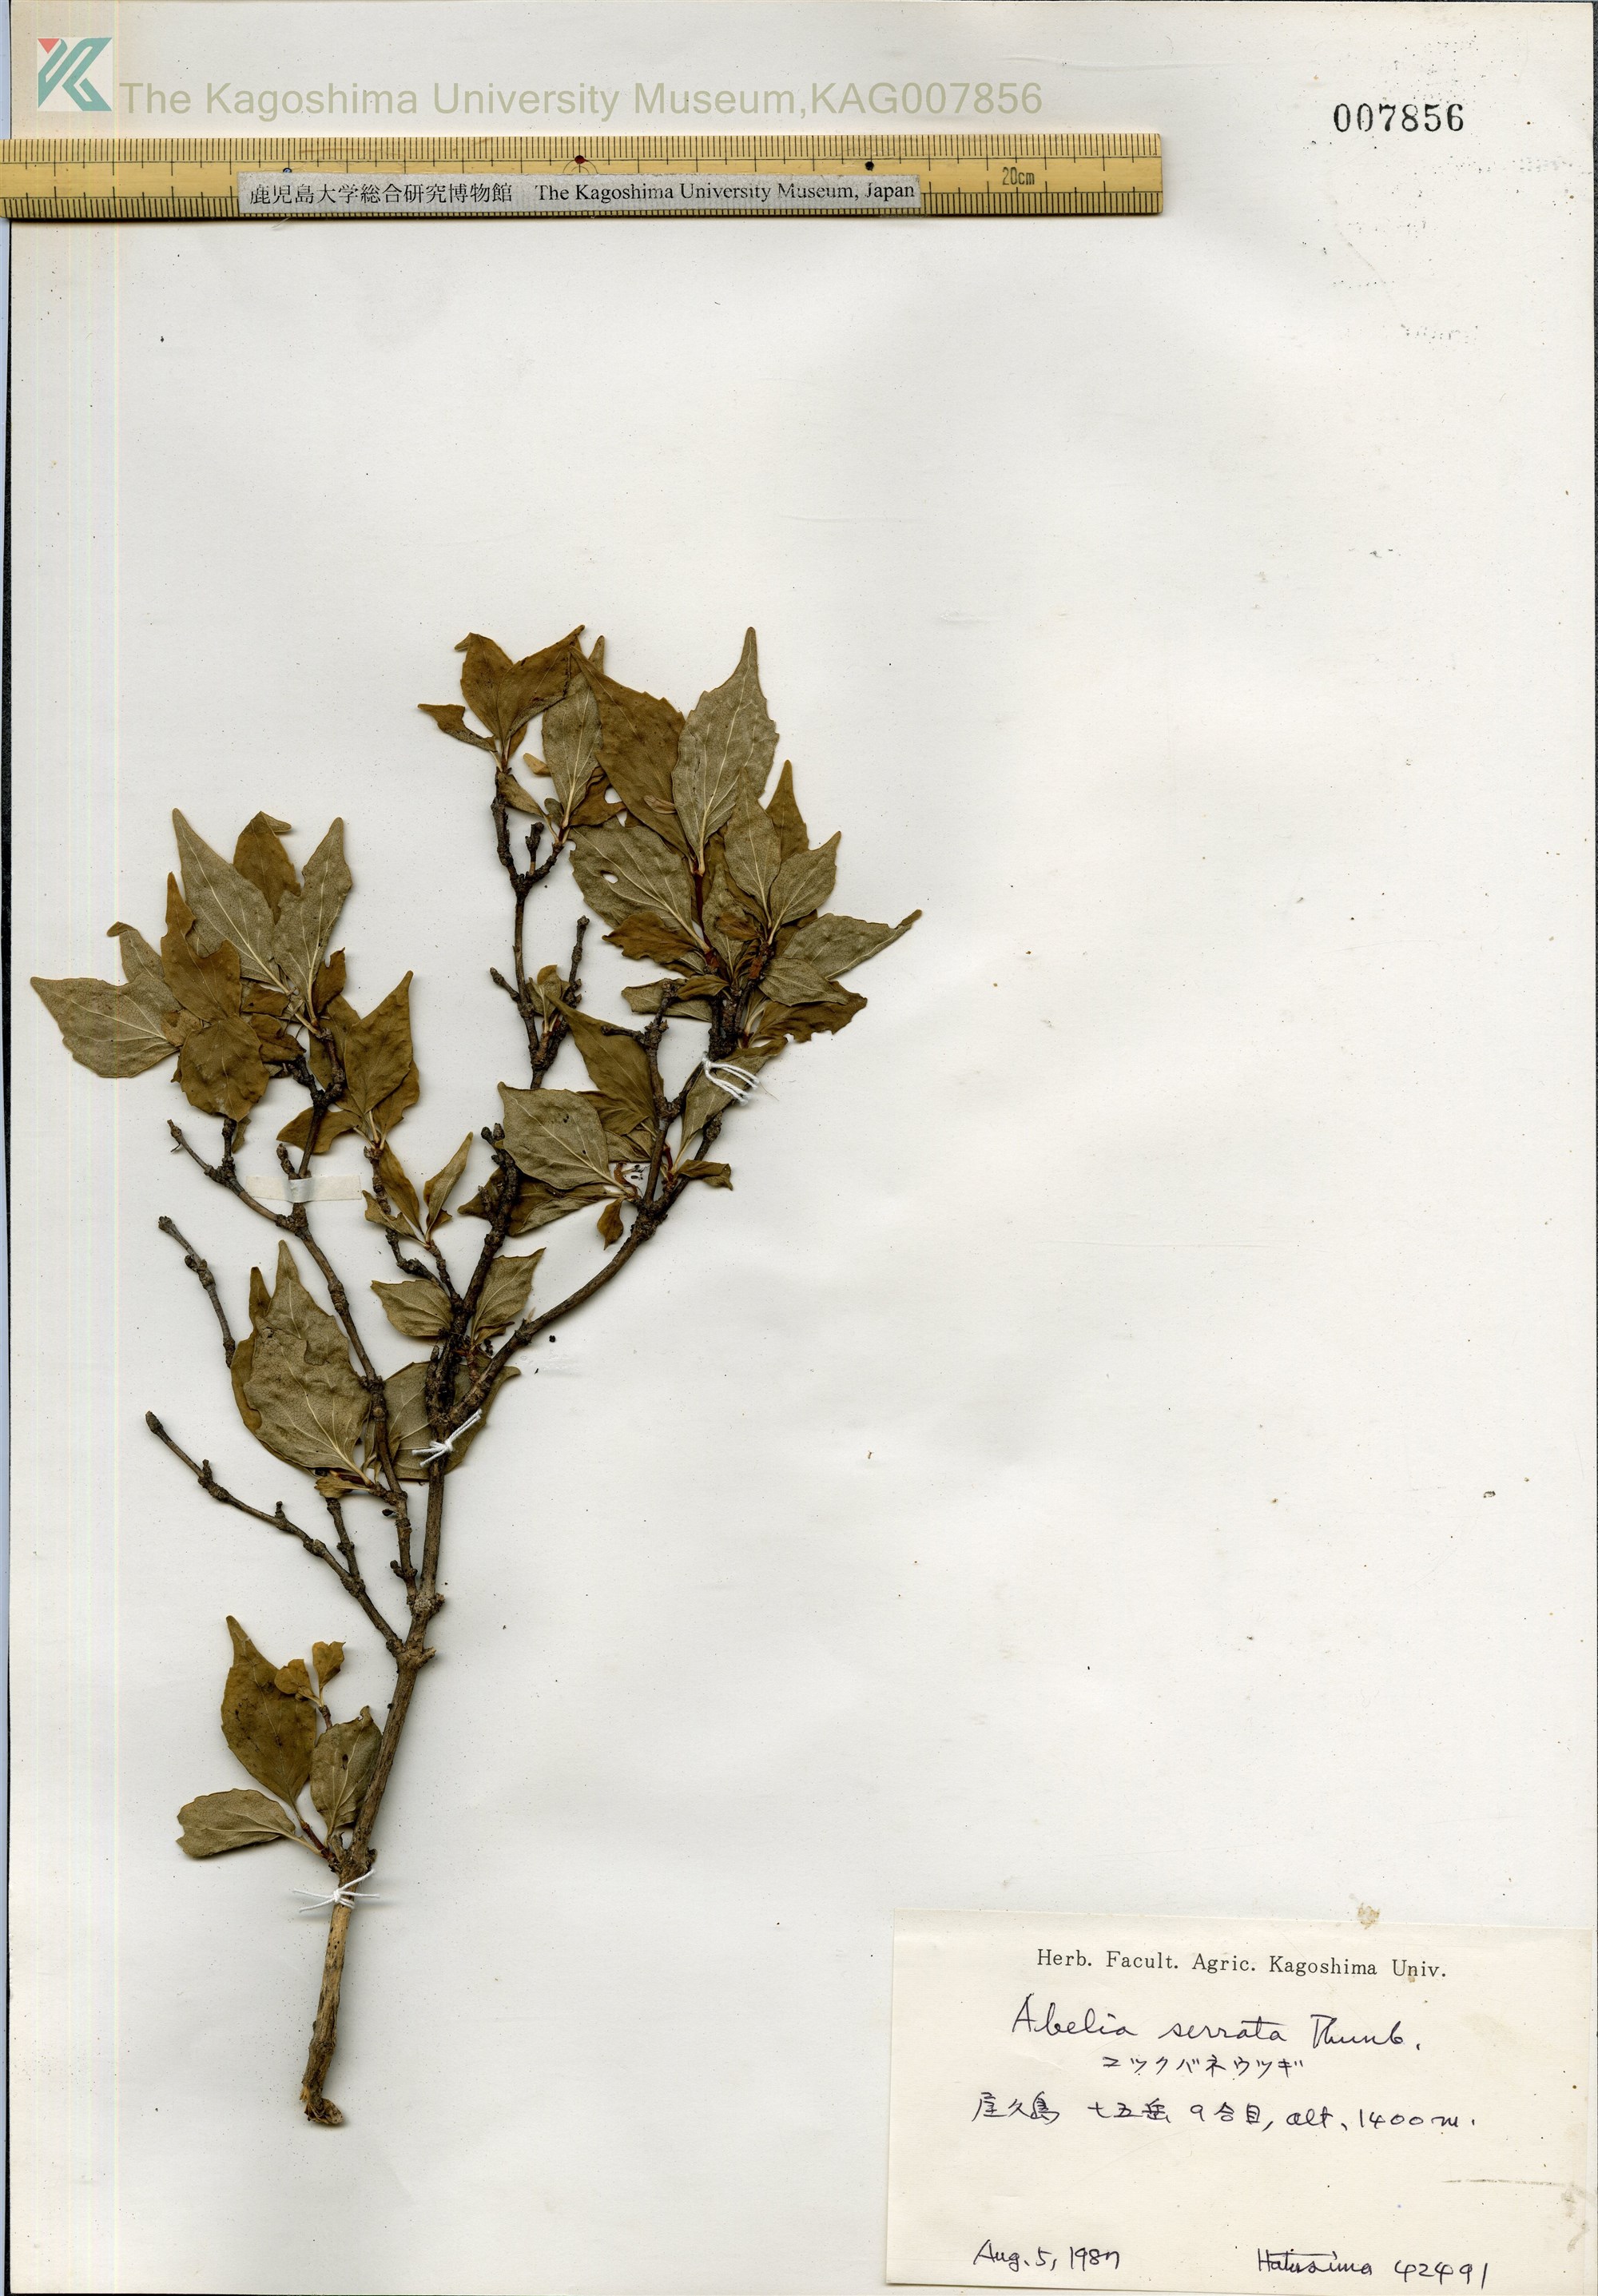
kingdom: Plantae
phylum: Tracheophyta
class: Magnoliopsida
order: Dipsacales
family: Caprifoliaceae
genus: Diabelia
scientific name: Diabelia serrata
